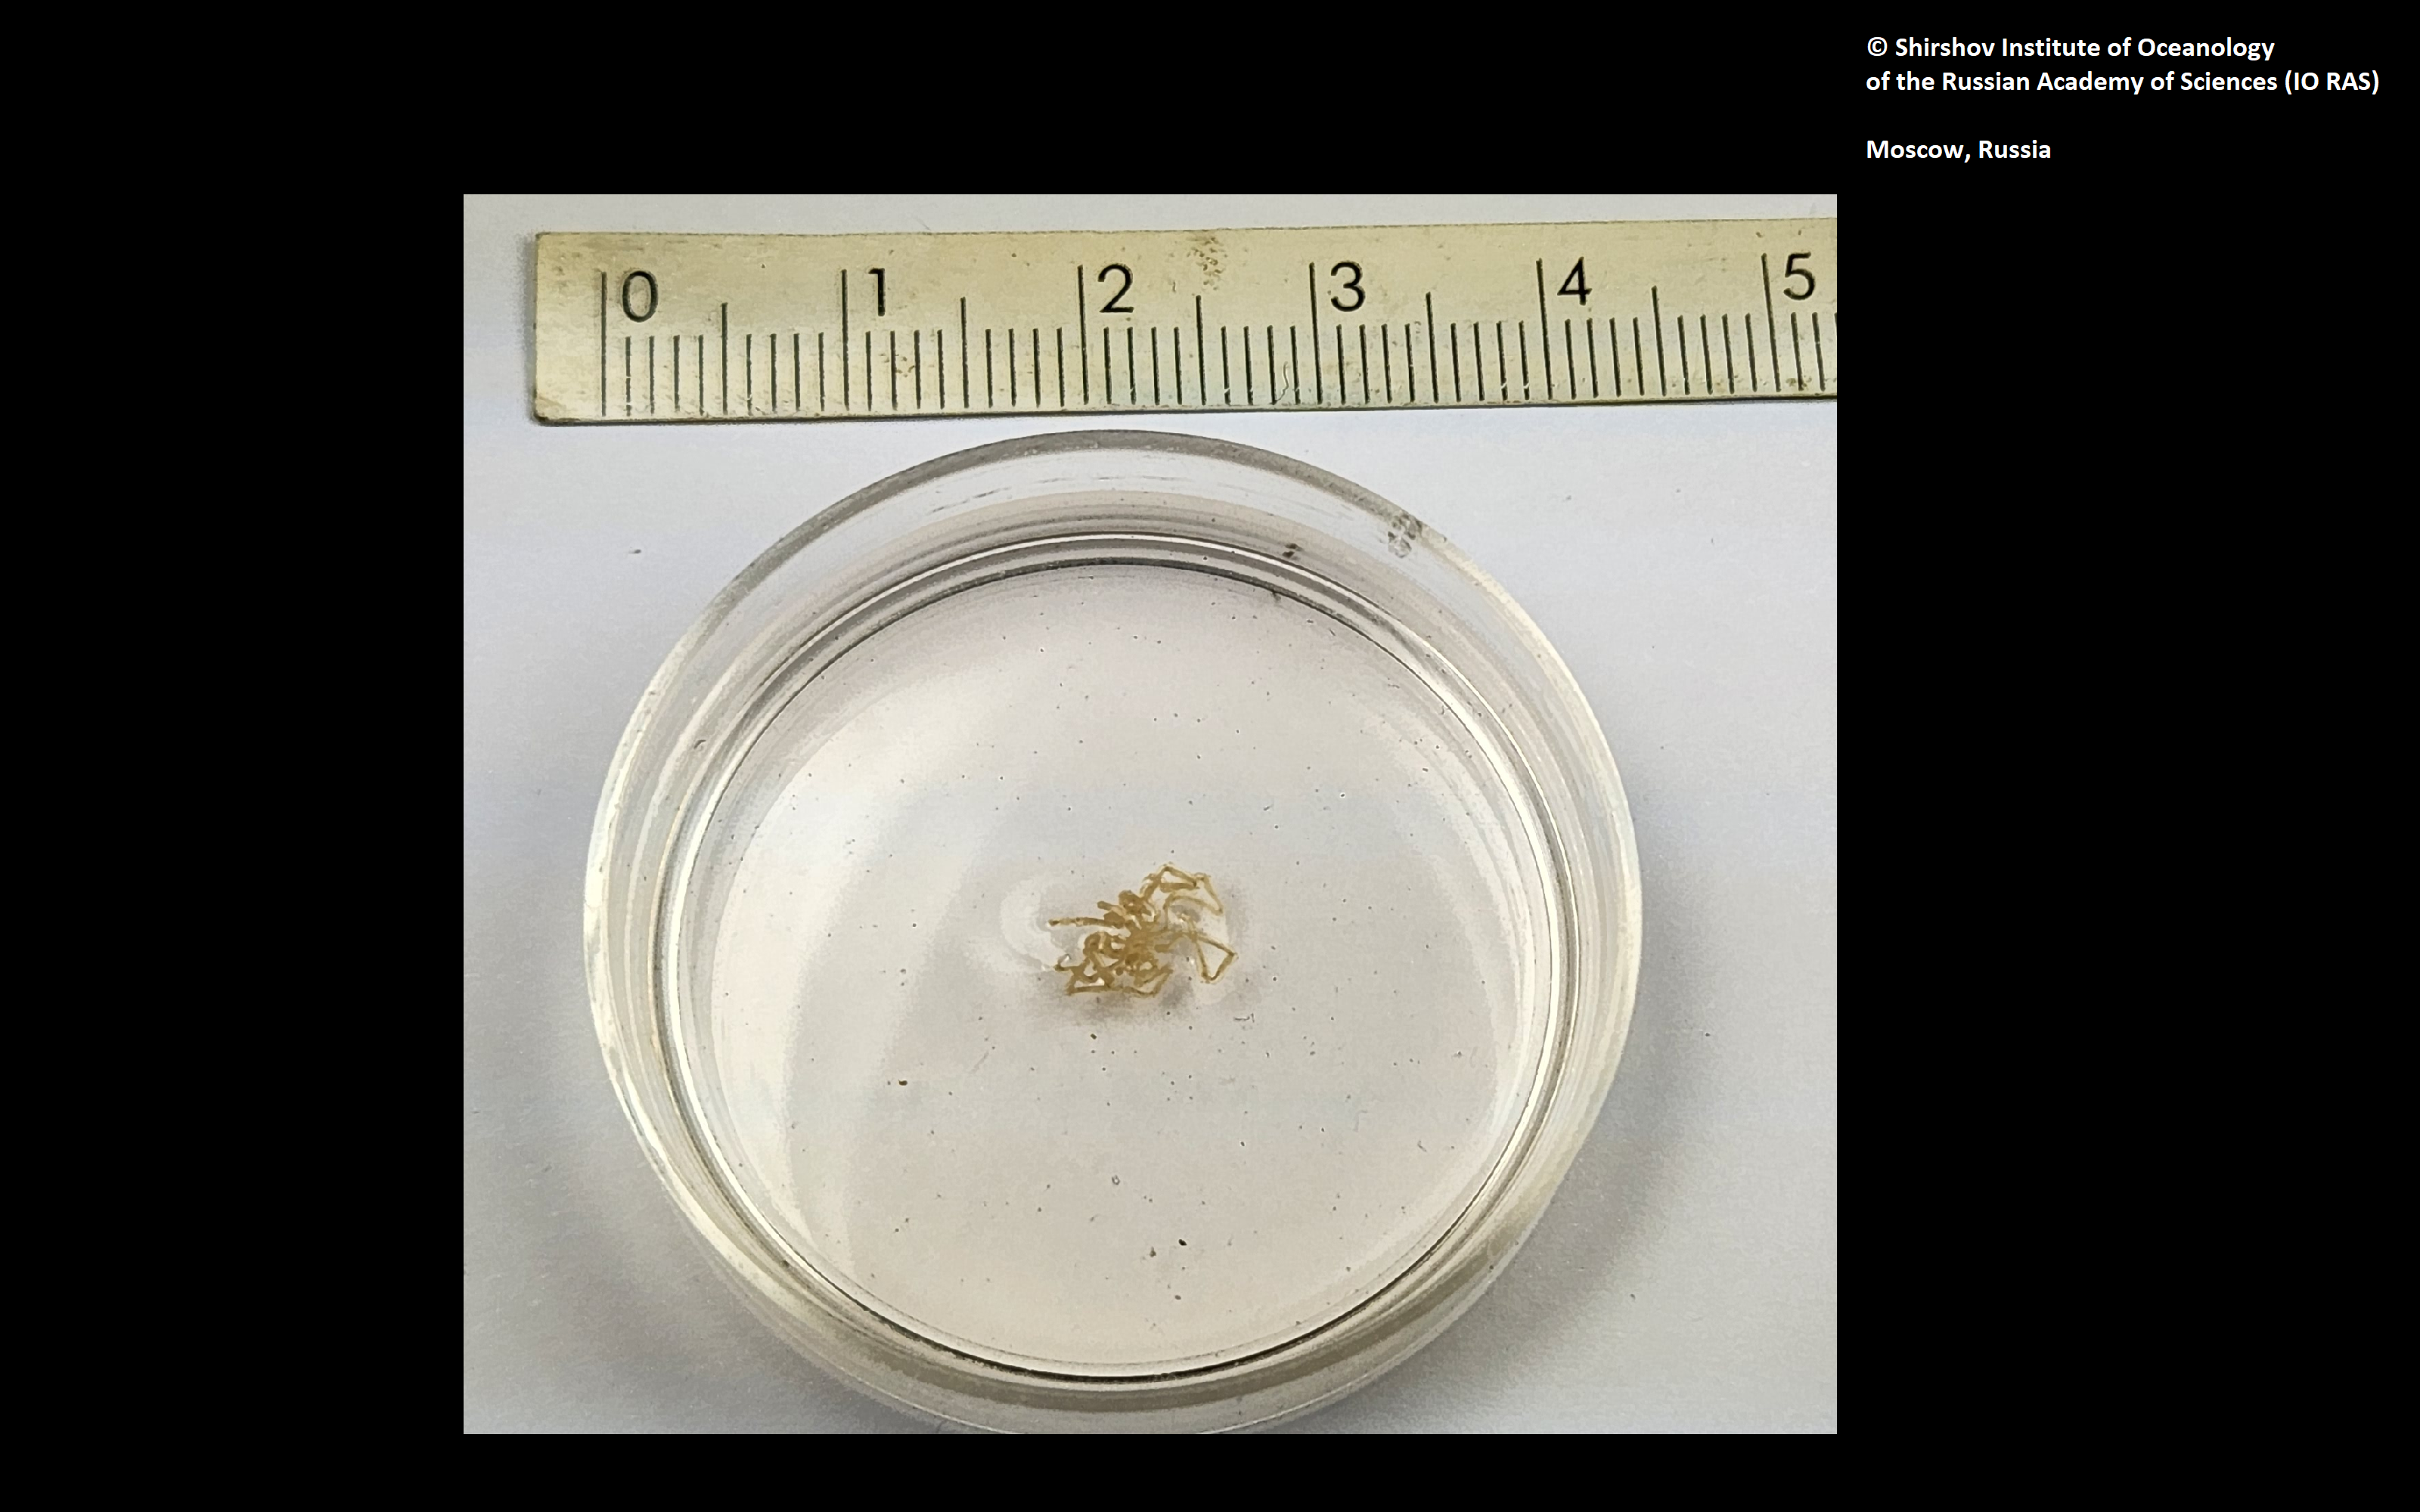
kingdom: Animalia
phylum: Arthropoda
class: Pycnogonida
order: Pantopoda
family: Phoxichilidiidae
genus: Phoxichilidium
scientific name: Phoxichilidium tuberungum
